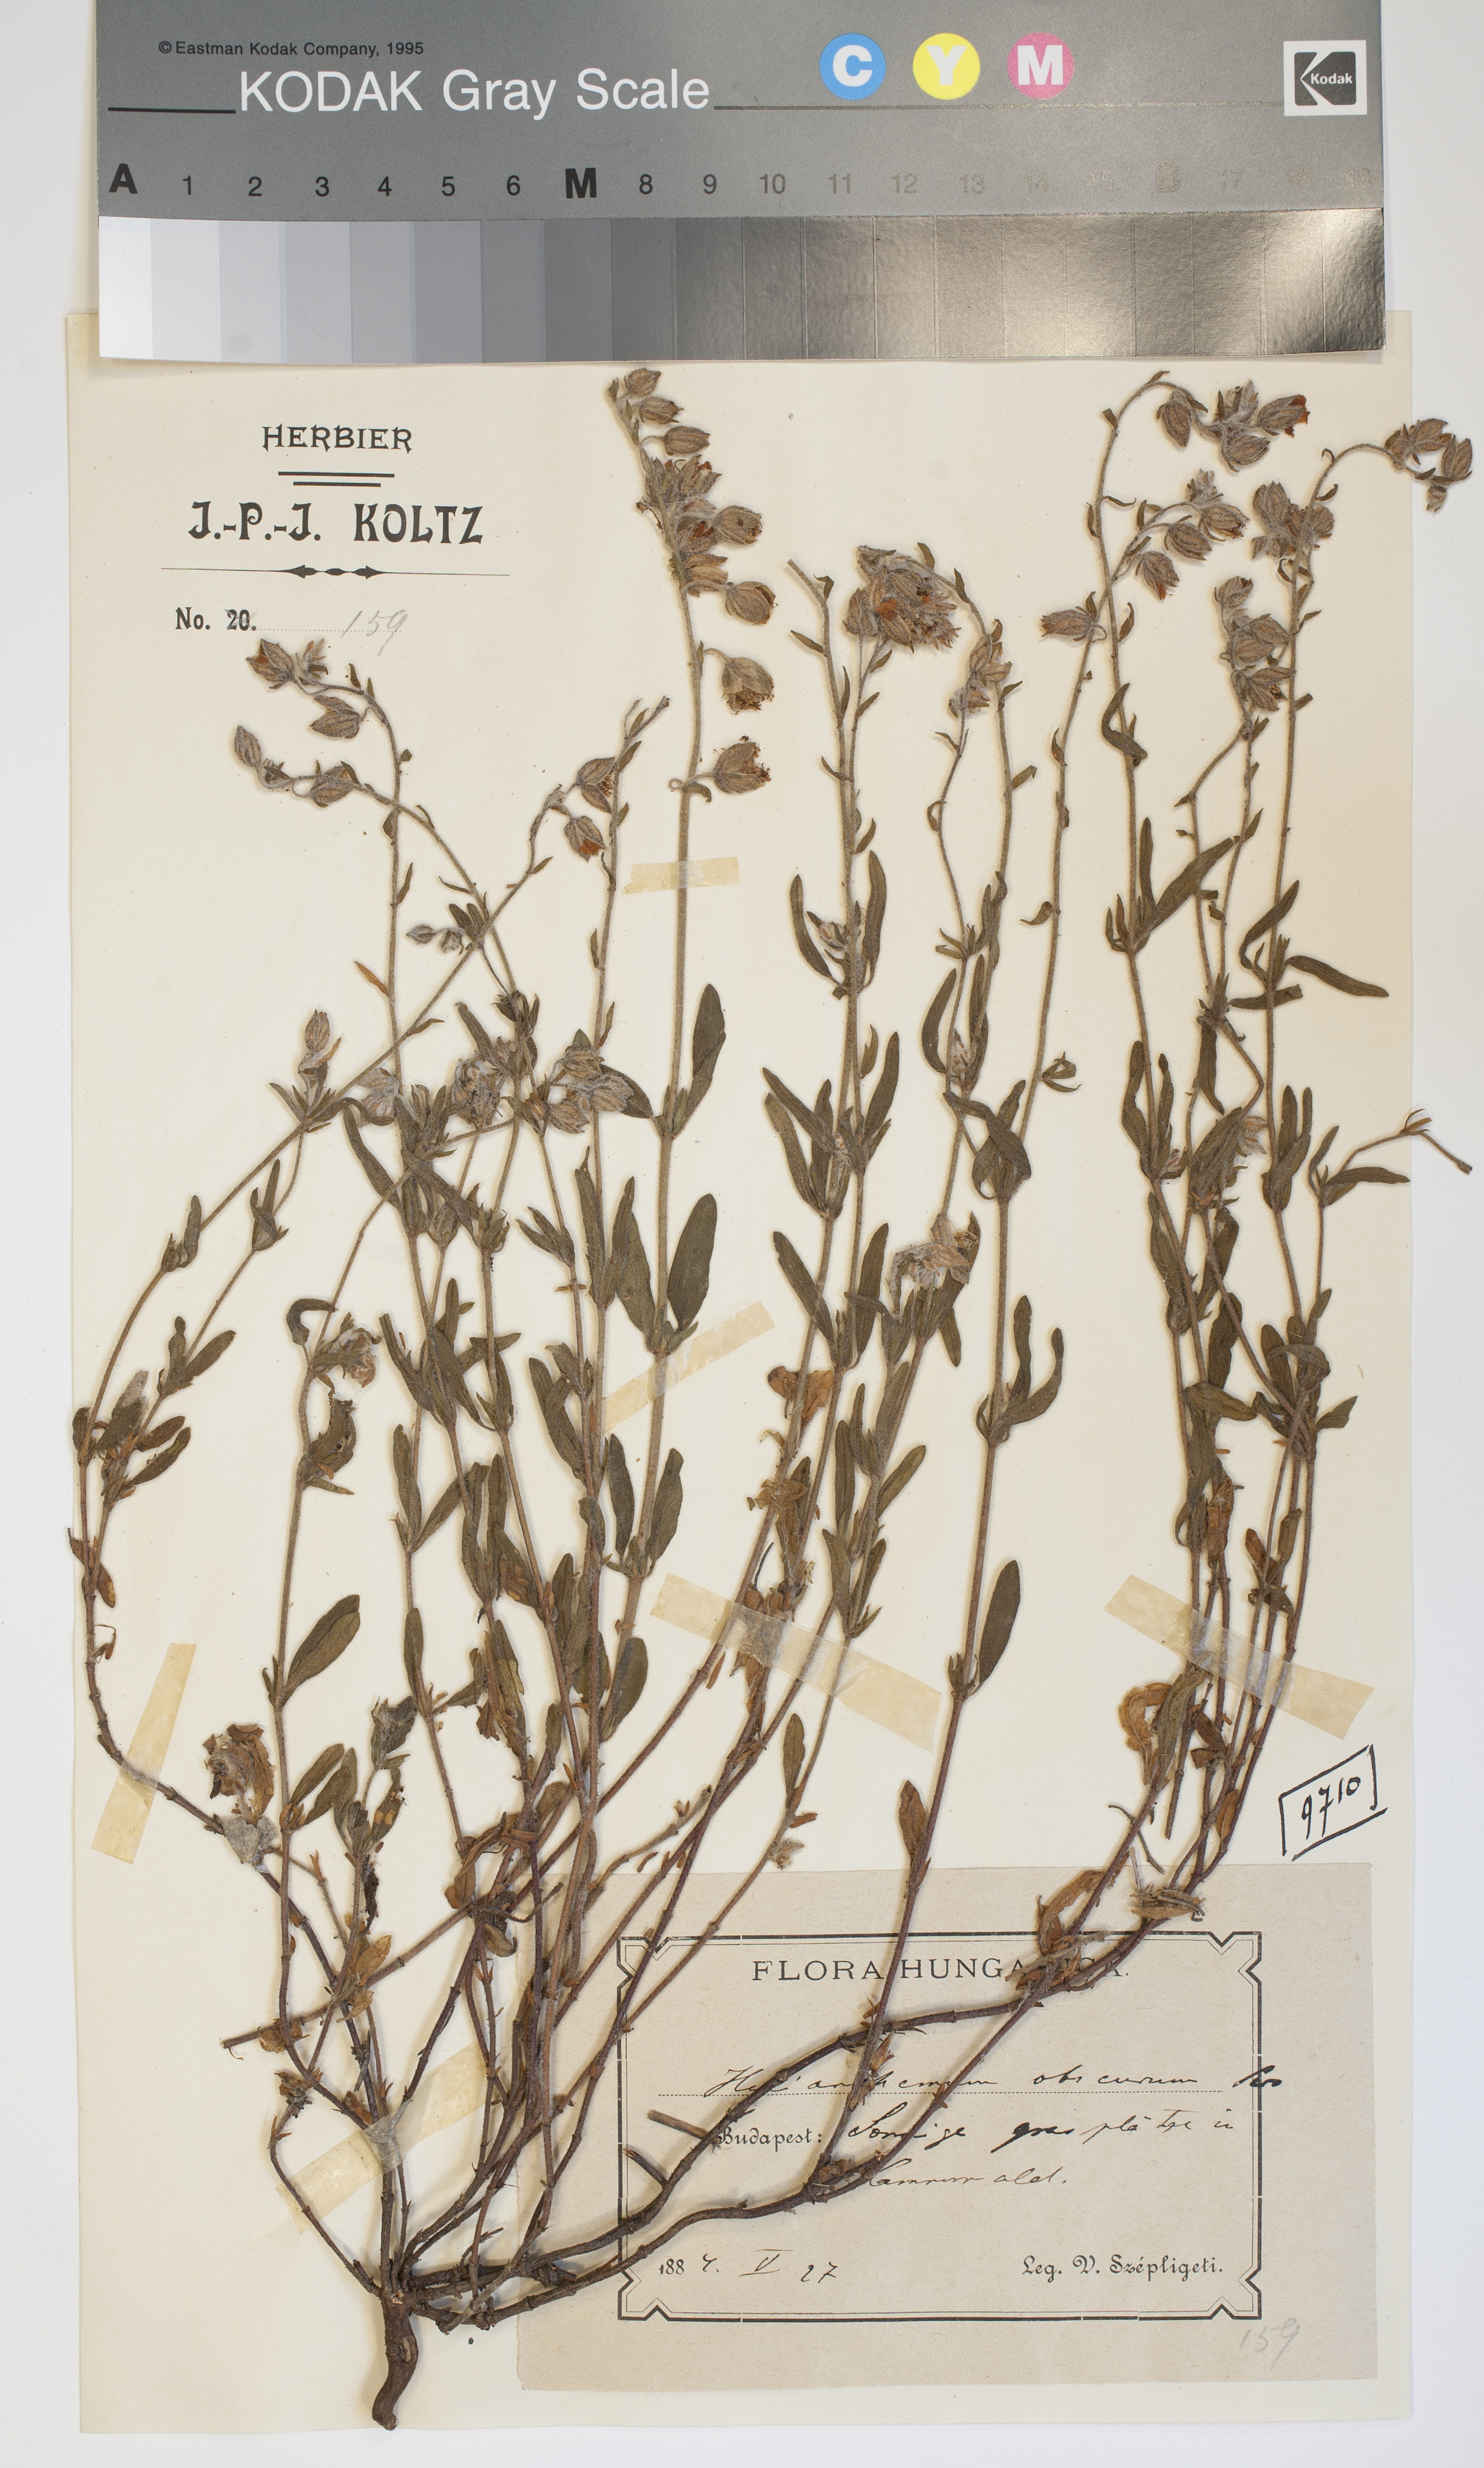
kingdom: Plantae
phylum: Tracheophyta
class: Magnoliopsida
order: Malvales
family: Cistaceae
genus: Helianthemum
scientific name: Helianthemum nummularium
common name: Common rock-rose
